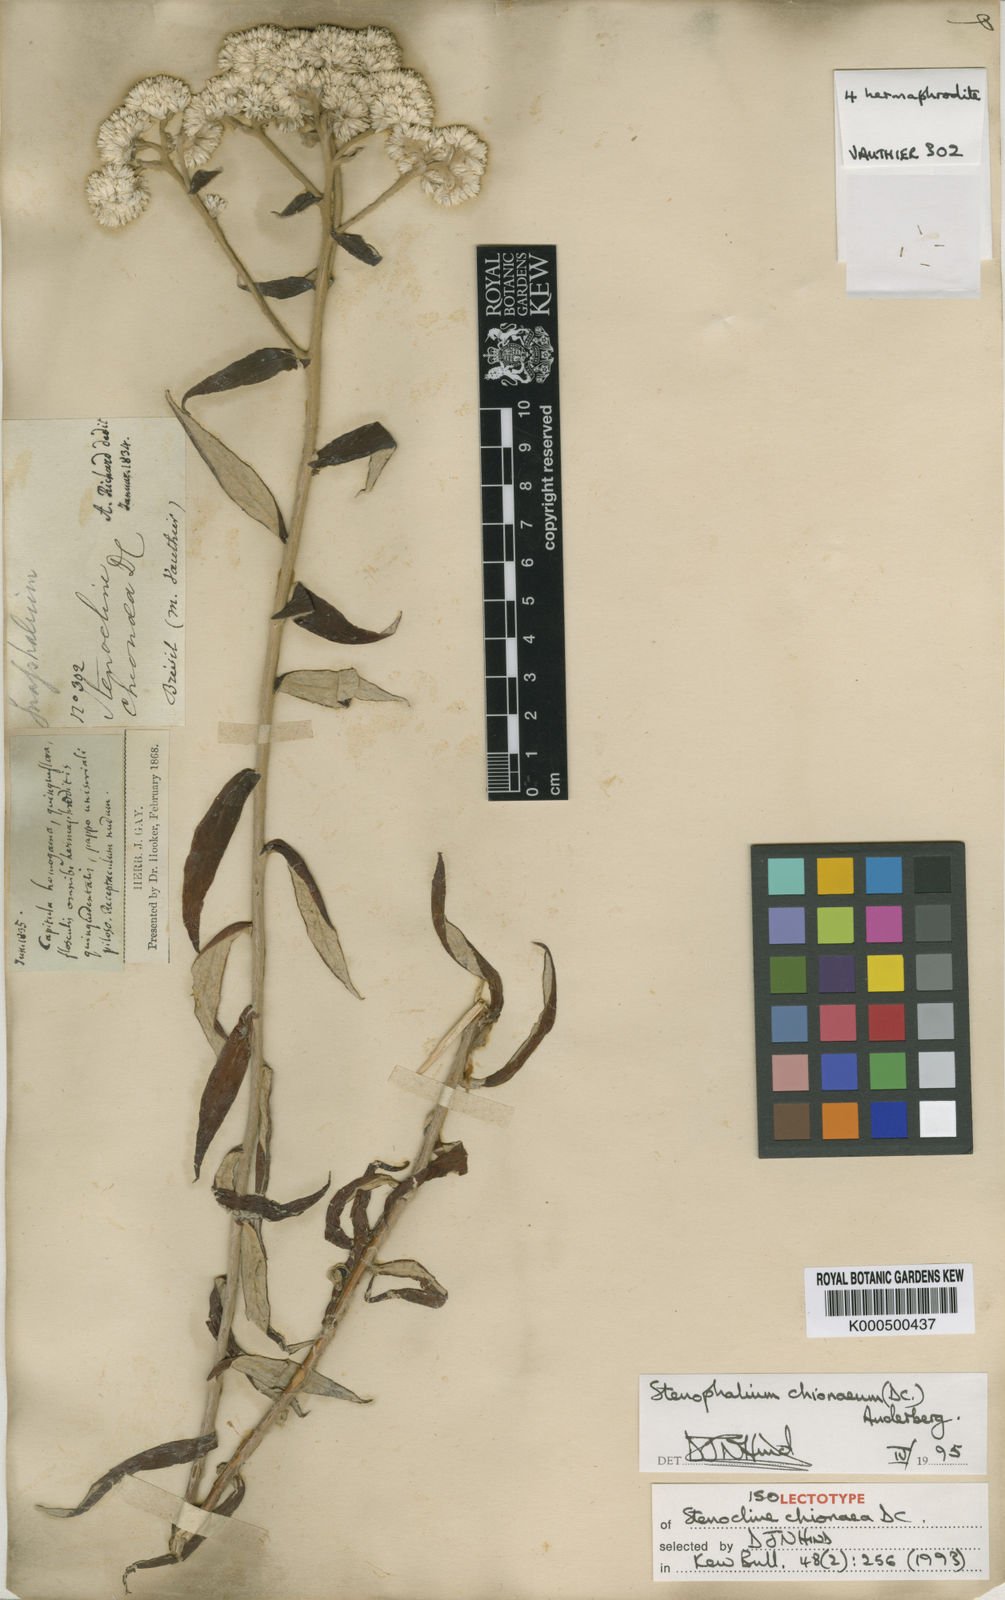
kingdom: Plantae
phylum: Tracheophyta
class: Magnoliopsida
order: Asterales
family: Asteraceae
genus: Achyrocline
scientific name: Achyrocline chionaea
